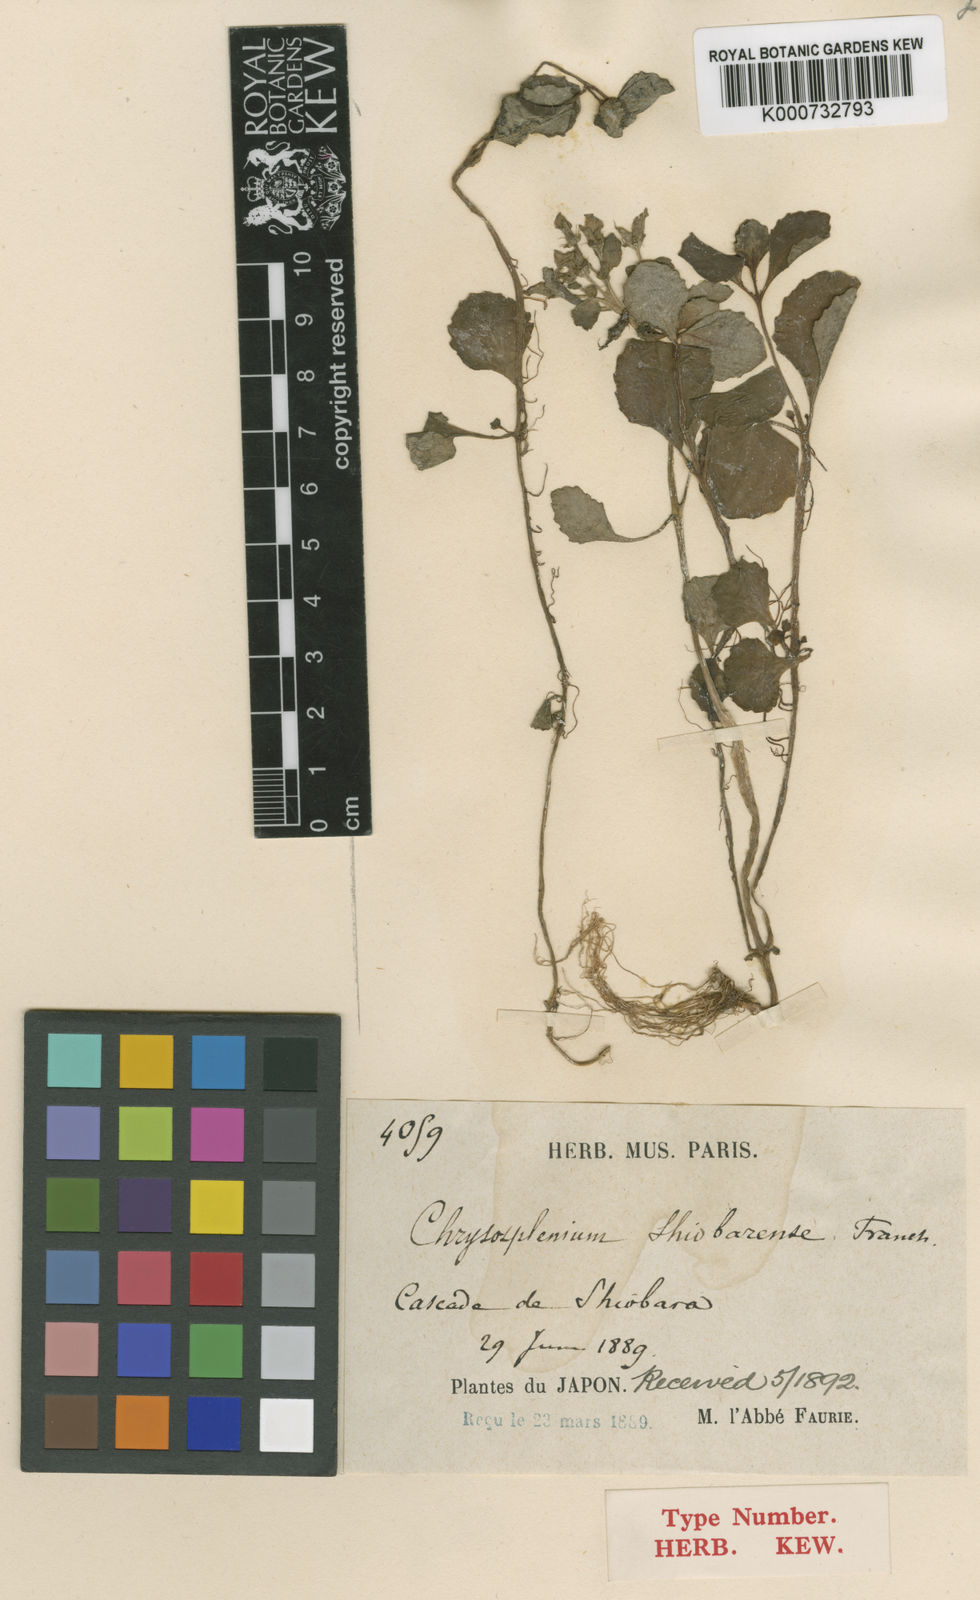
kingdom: Plantae
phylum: Tracheophyta
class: Magnoliopsida
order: Saxifragales
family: Saxifragaceae
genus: Chrysosplenium
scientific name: Chrysosplenium macrophyllum
